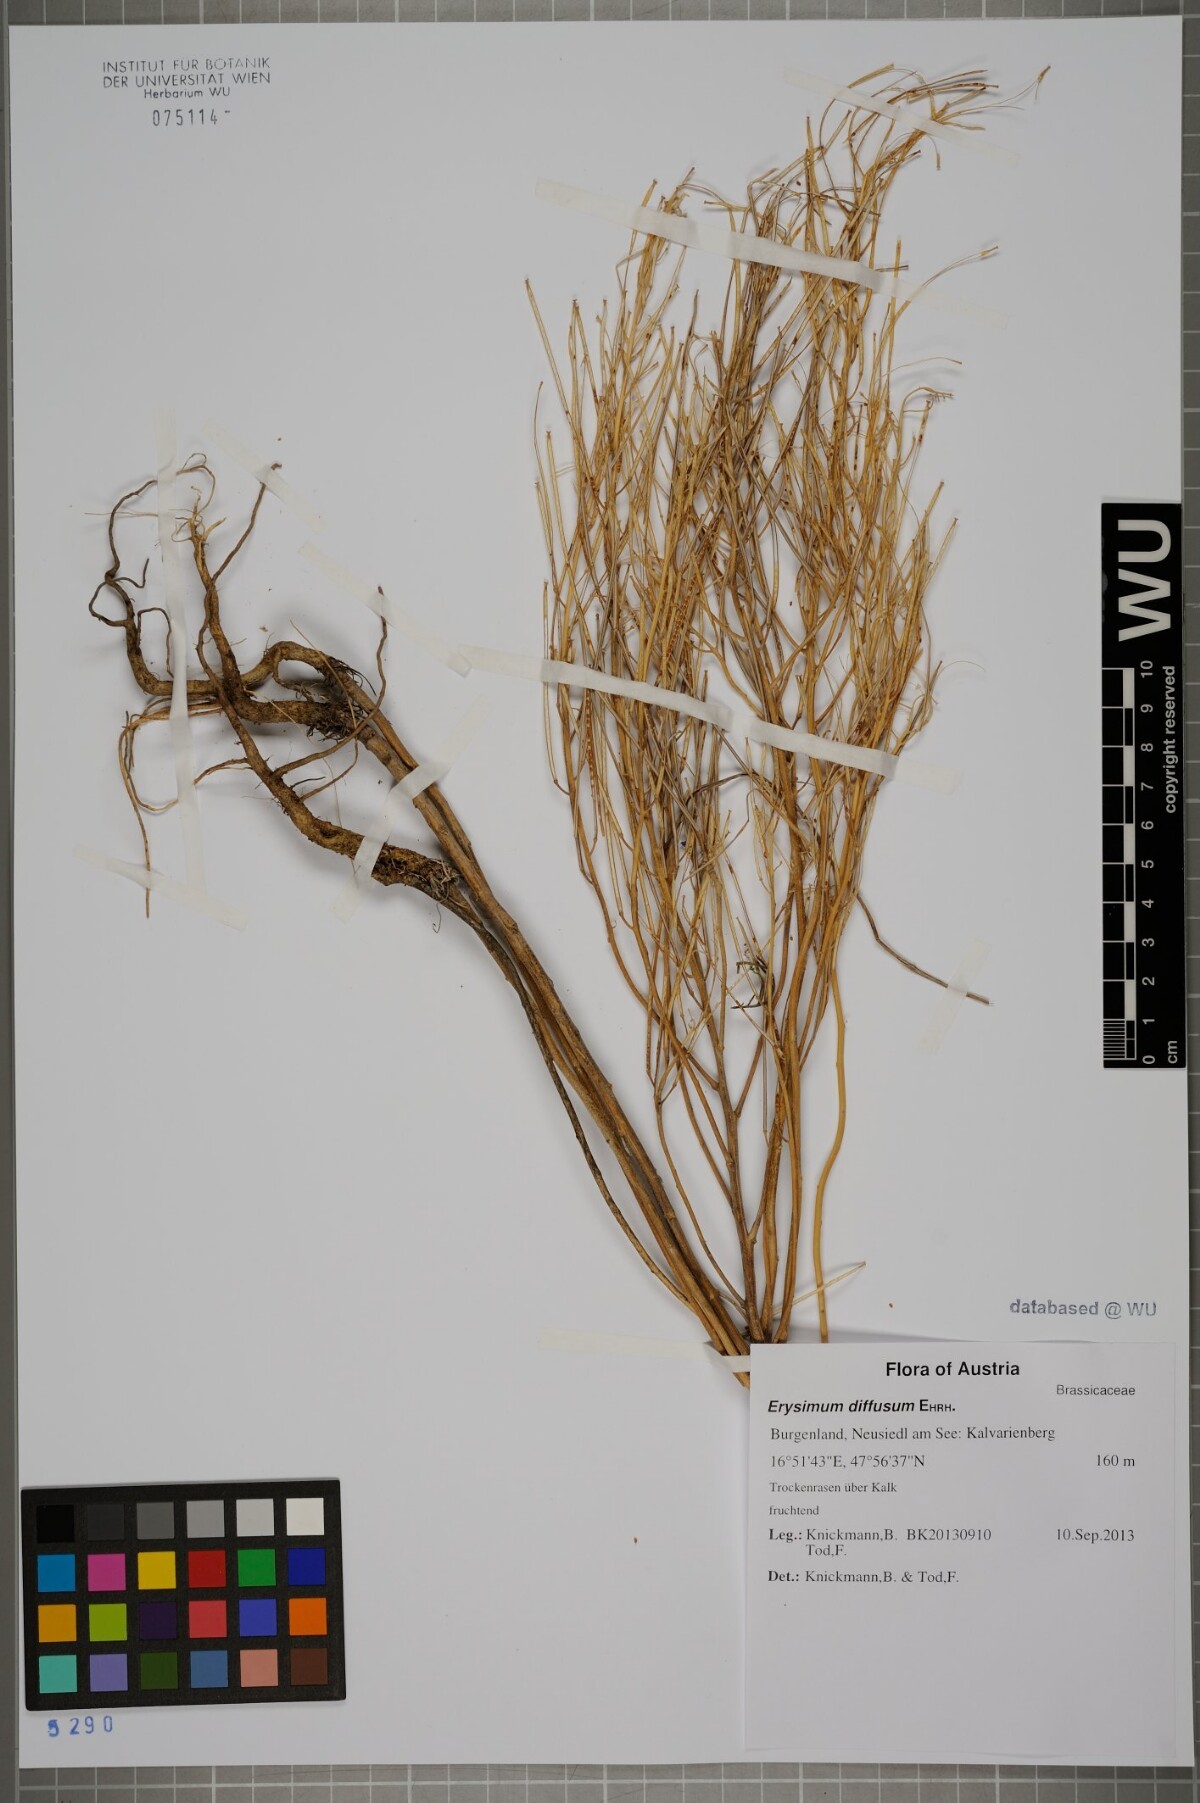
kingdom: Plantae
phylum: Tracheophyta
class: Magnoliopsida
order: Brassicales
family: Brassicaceae
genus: Erysimum
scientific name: Erysimum diffusum
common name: Diffuse wallflower
